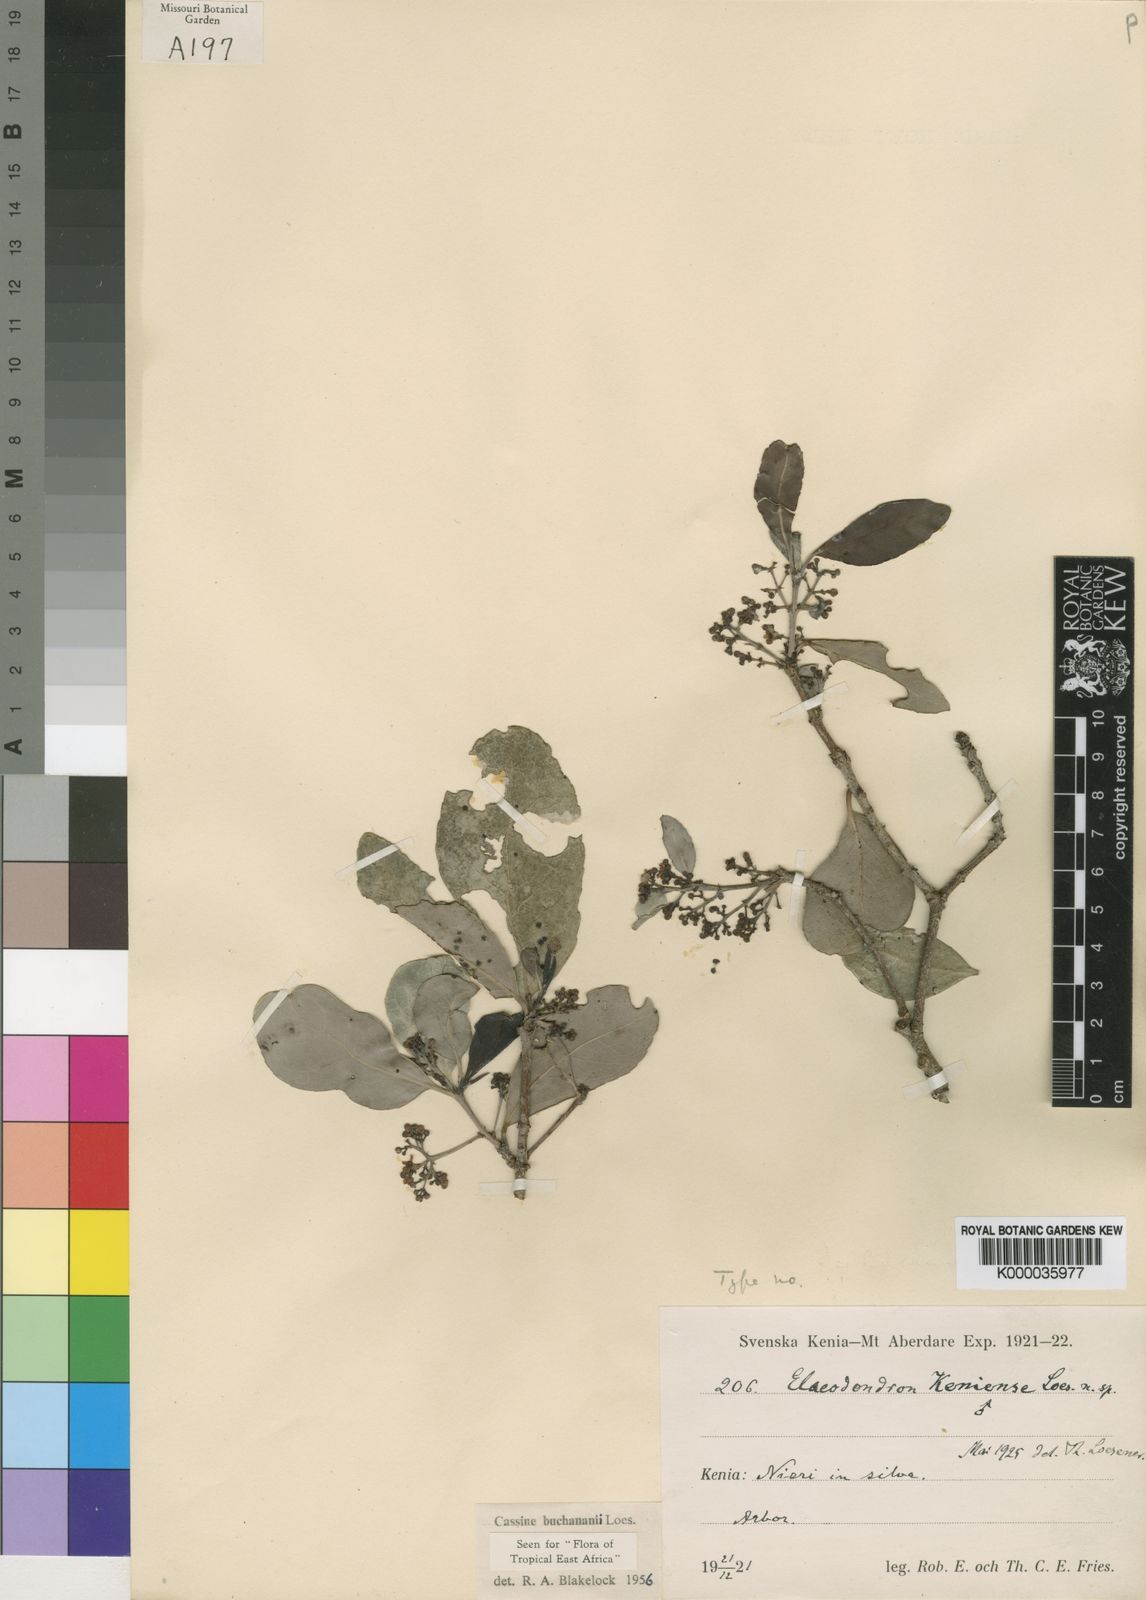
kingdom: Plantae
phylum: Tracheophyta
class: Magnoliopsida
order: Celastrales
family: Celastraceae
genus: Elaeodendron
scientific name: Elaeodendron buchananii
